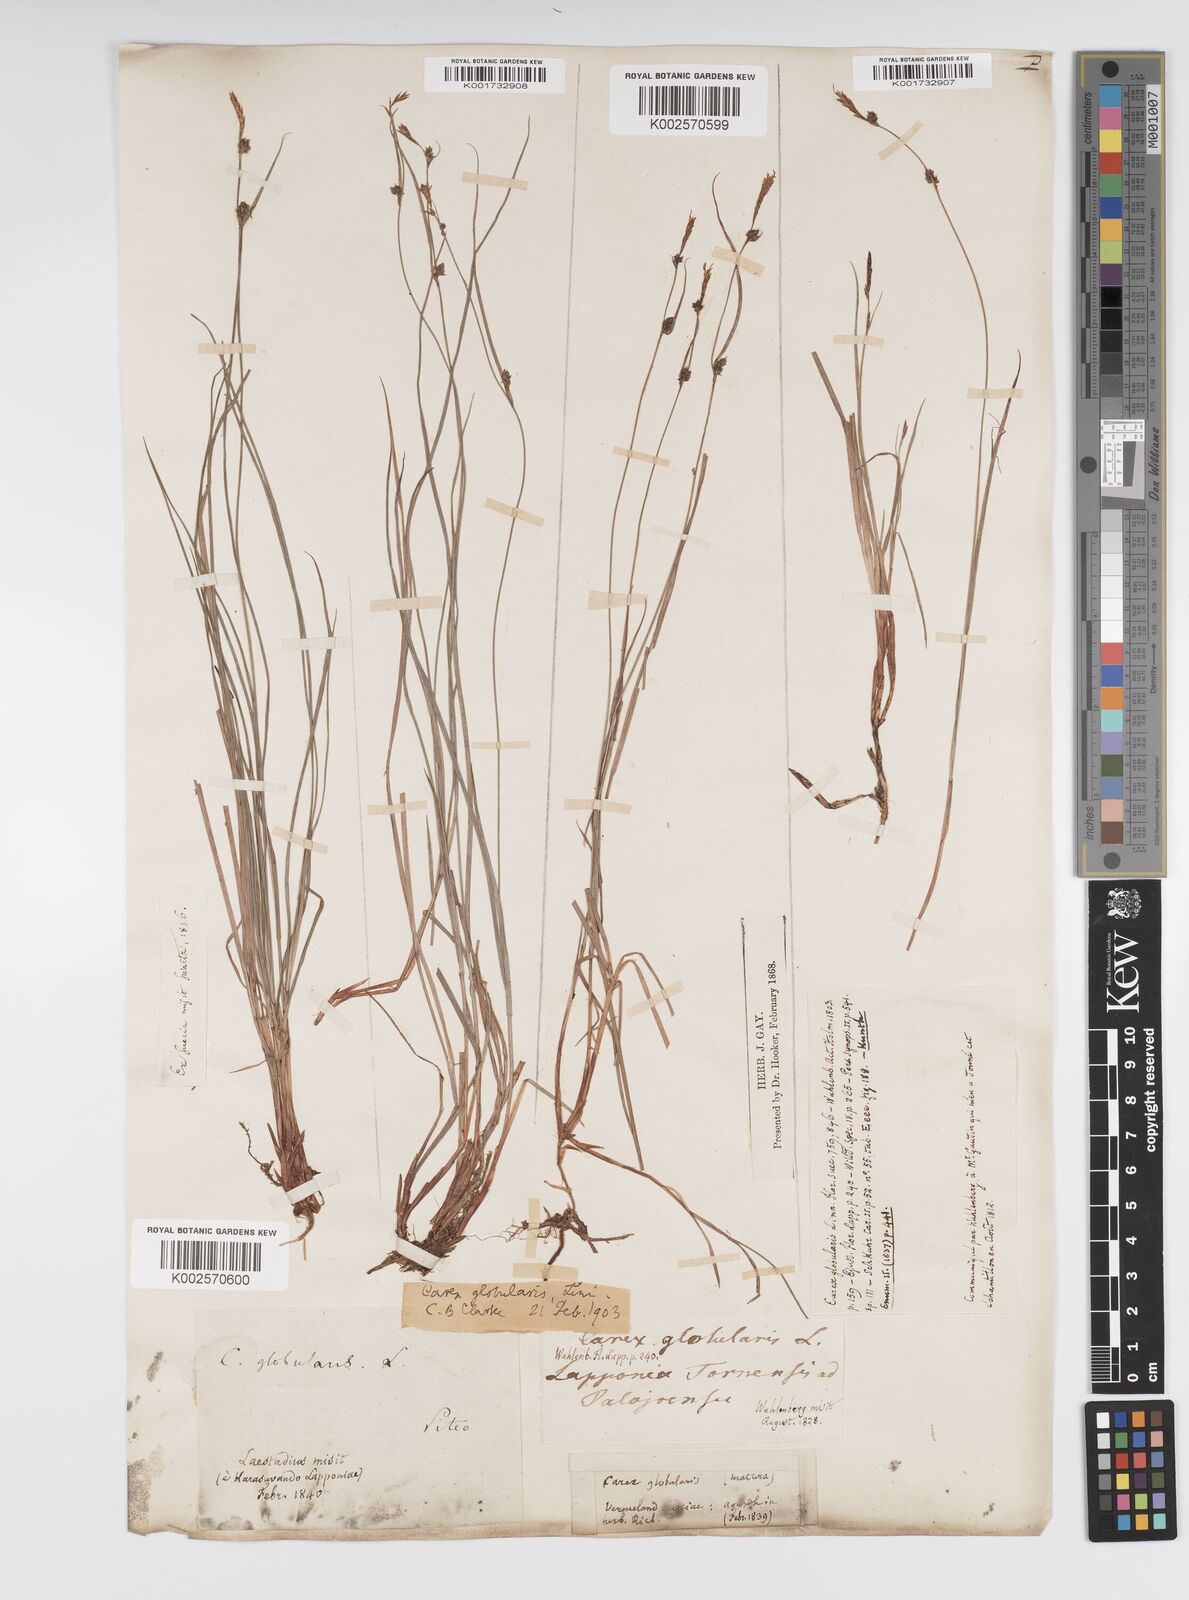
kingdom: Plantae
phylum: Tracheophyta
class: Liliopsida
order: Poales
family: Cyperaceae
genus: Carex
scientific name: Carex globularis
